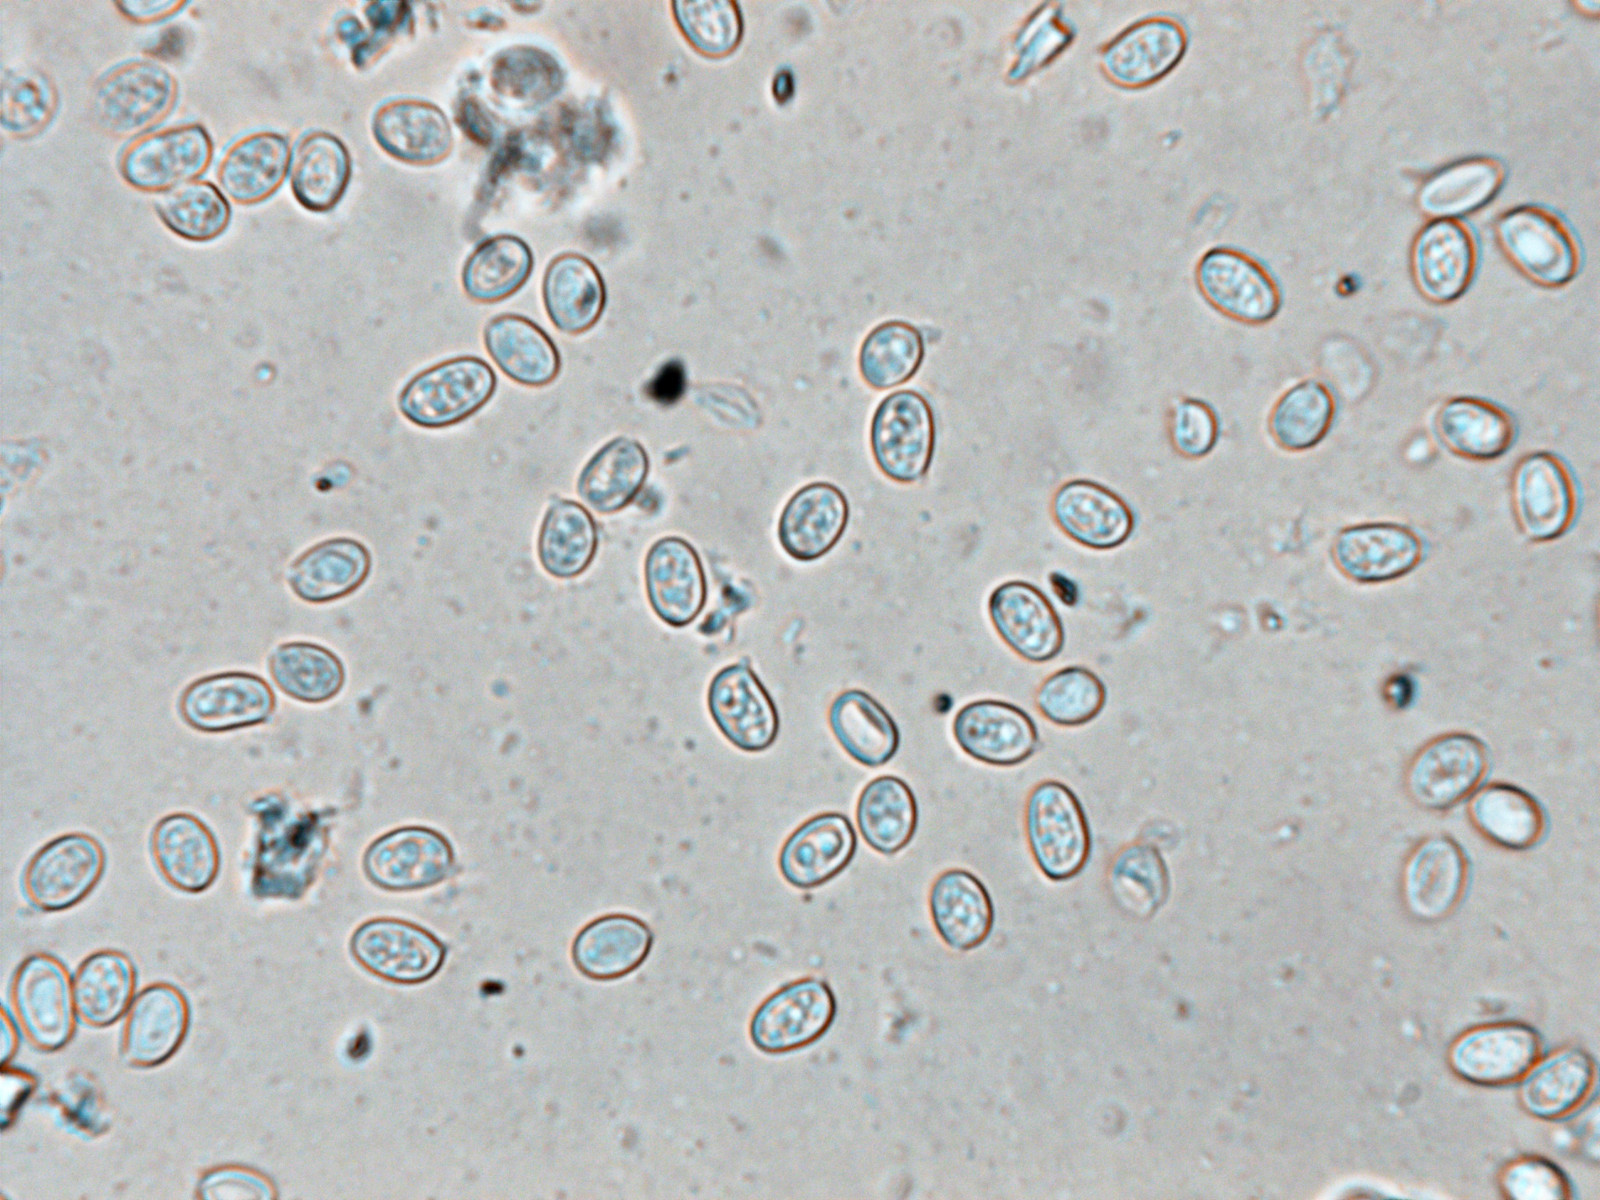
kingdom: Fungi
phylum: Basidiomycota
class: Agaricomycetes
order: Agaricales
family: Agaricaceae
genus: Lepiota
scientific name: Lepiota ochraceofulva
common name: sødtduftende parasolhat
